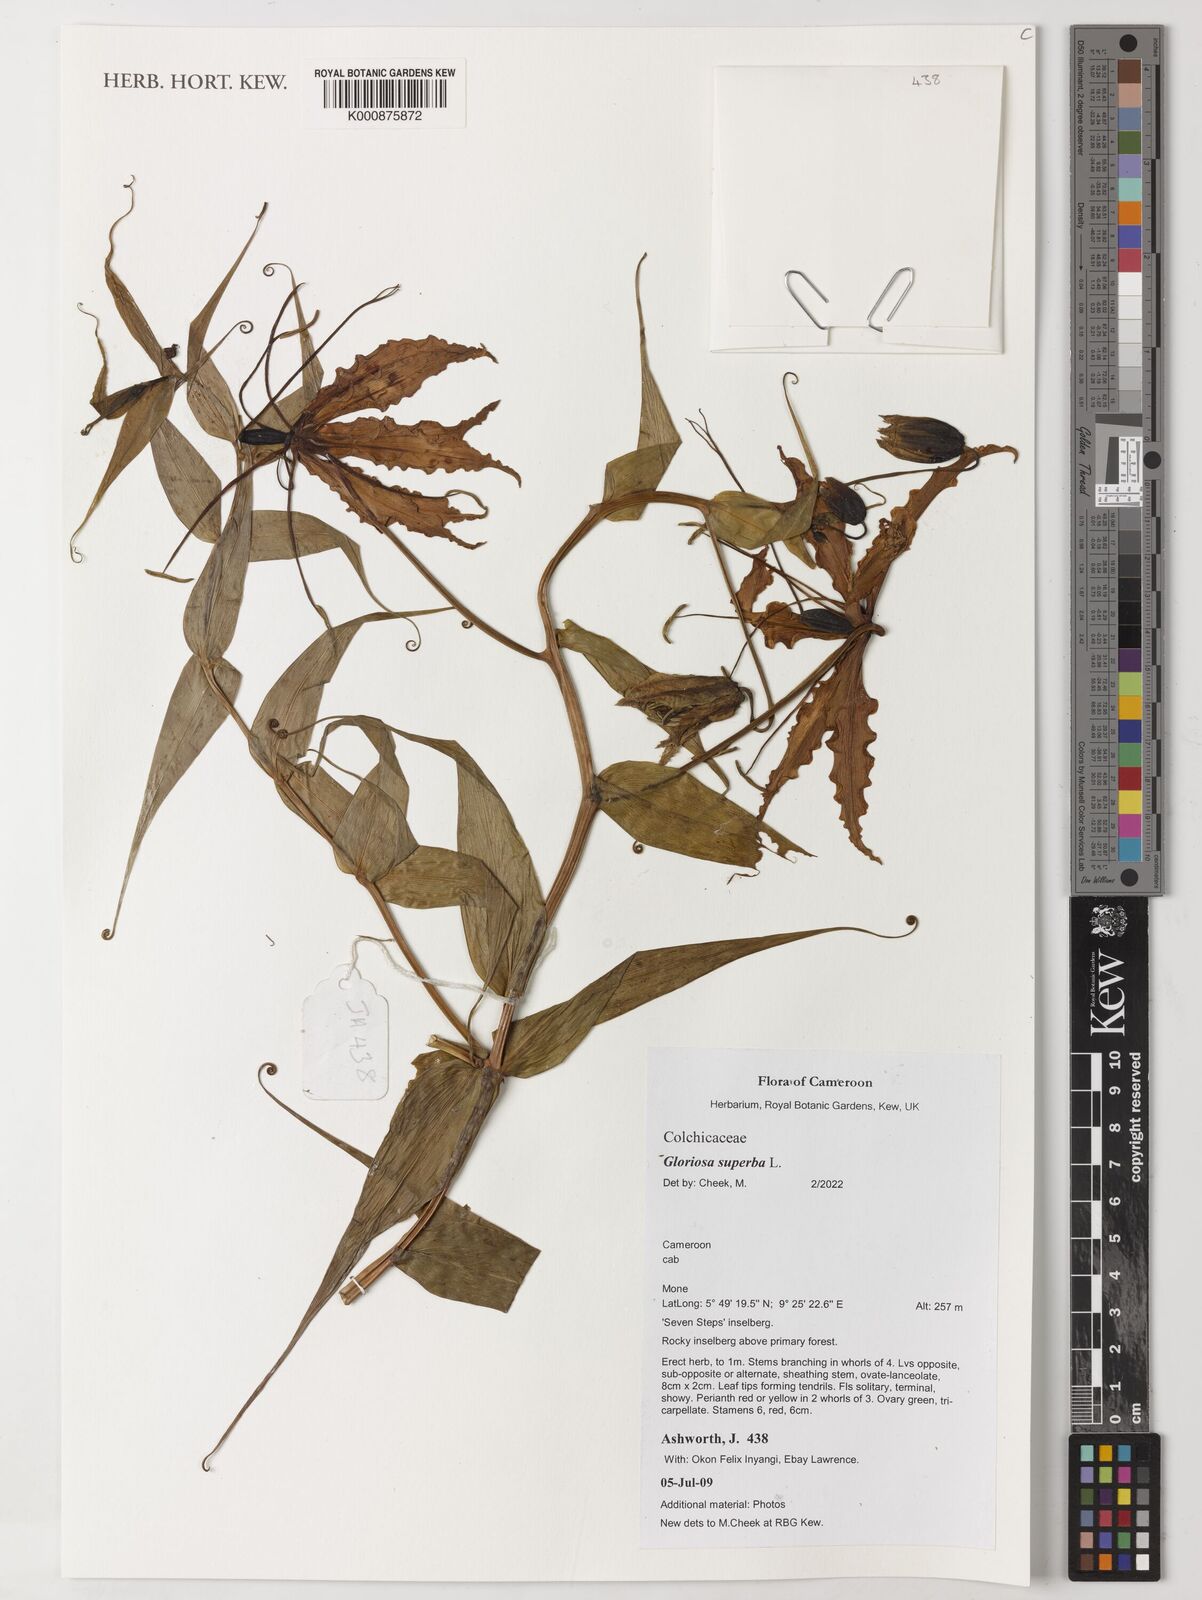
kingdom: Plantae
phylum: Tracheophyta
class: Liliopsida
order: Liliales
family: Colchicaceae
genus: Gloriosa
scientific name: Gloriosa superba
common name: Flame lily
